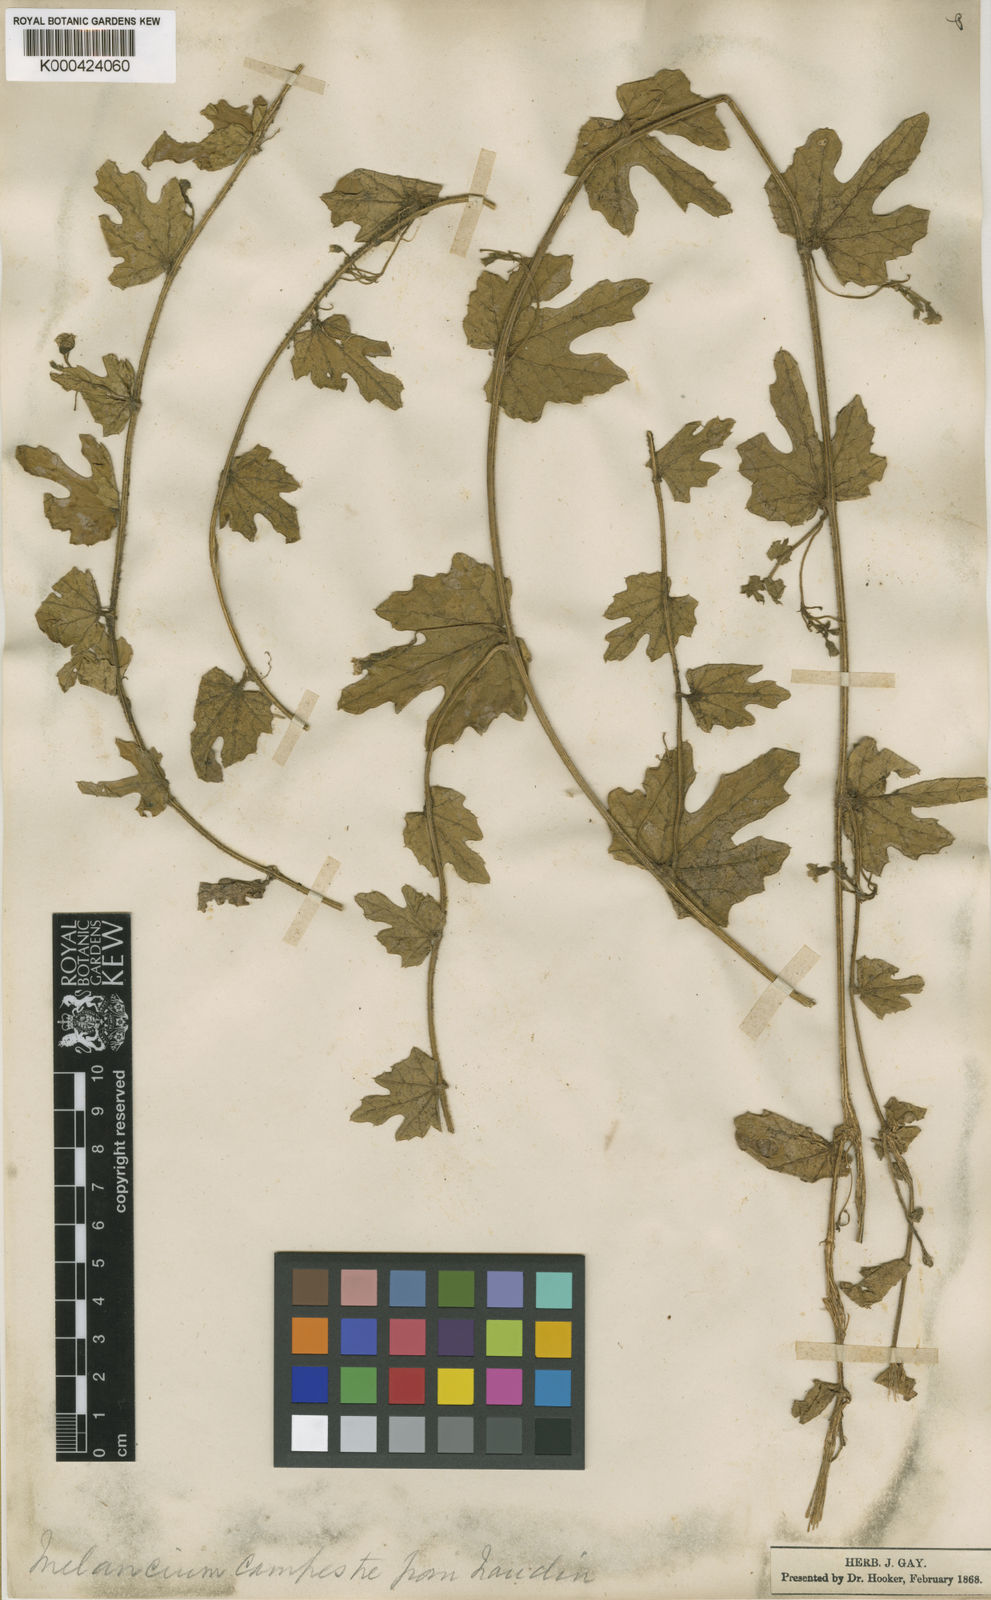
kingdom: Plantae
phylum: Tracheophyta
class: Magnoliopsida
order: Cucurbitales
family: Cucurbitaceae
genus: Melothria
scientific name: Melothria campestris
